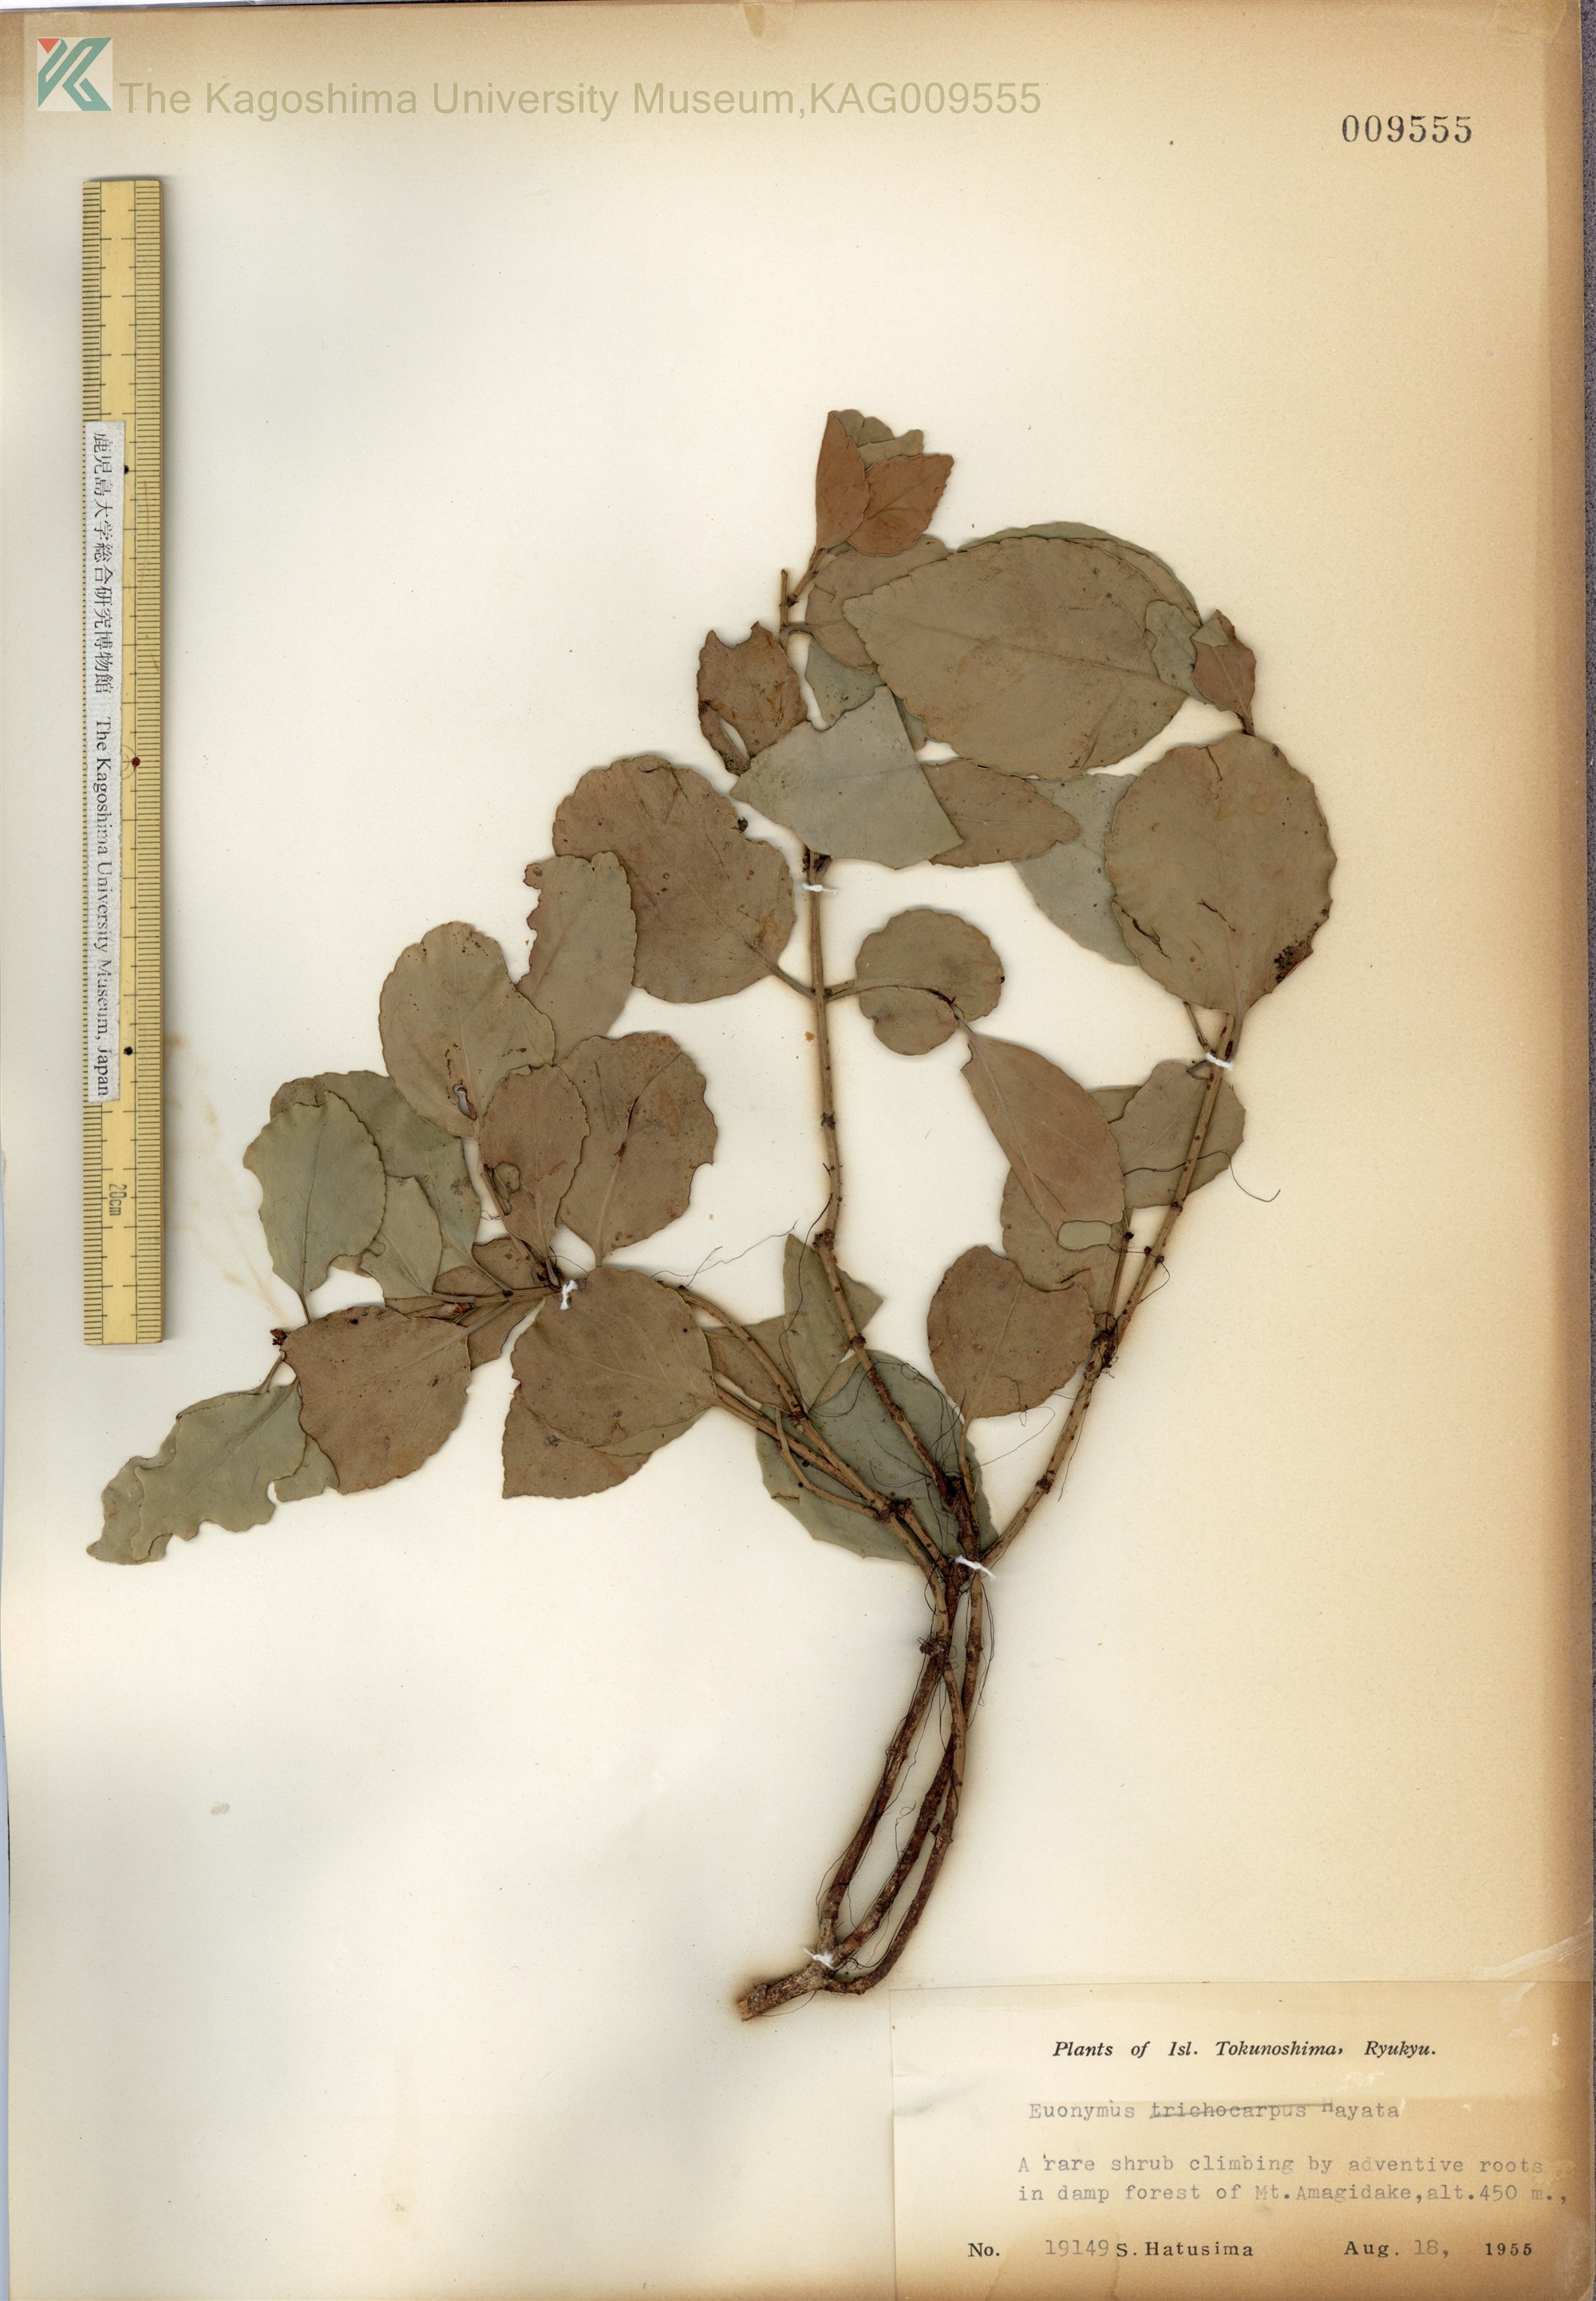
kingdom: Plantae
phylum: Tracheophyta
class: Magnoliopsida
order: Celastrales
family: Celastraceae
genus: Euonymus
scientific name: Euonymus fortunei
